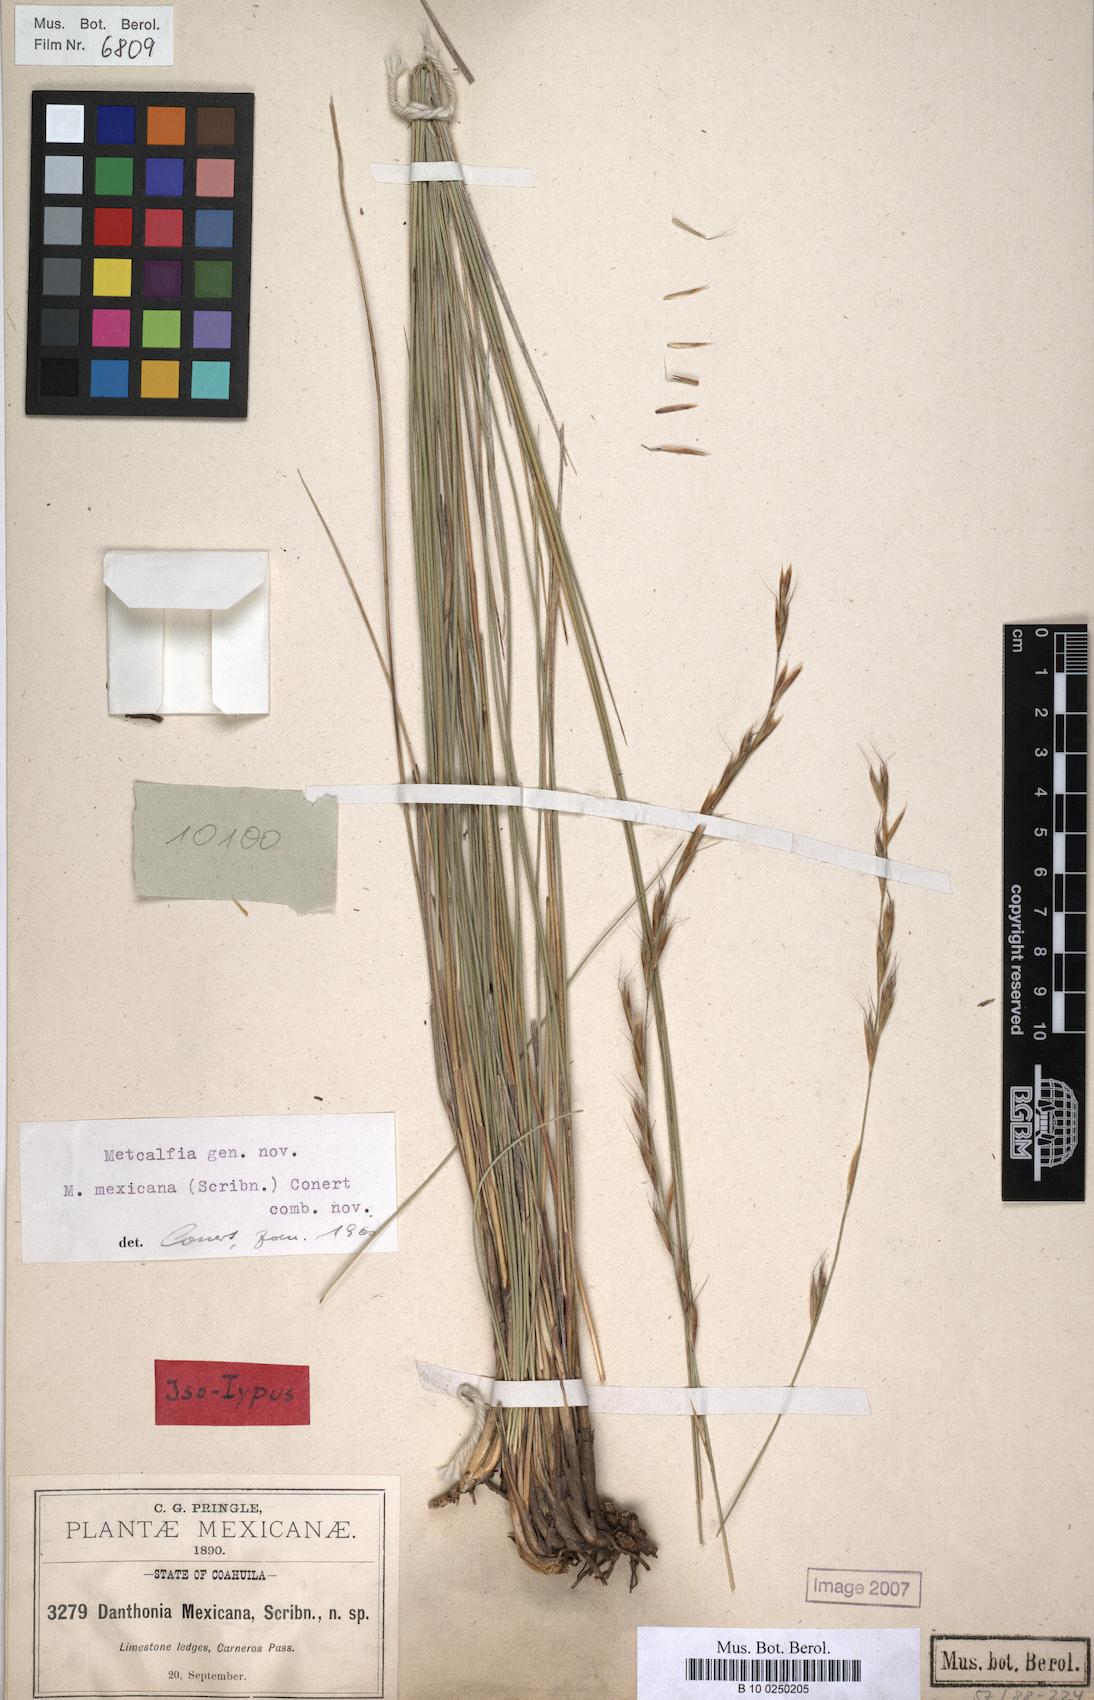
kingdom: Plantae
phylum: Tracheophyta
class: Liliopsida
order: Poales
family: Poaceae
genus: Metcalfia
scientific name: Metcalfia mexicana
